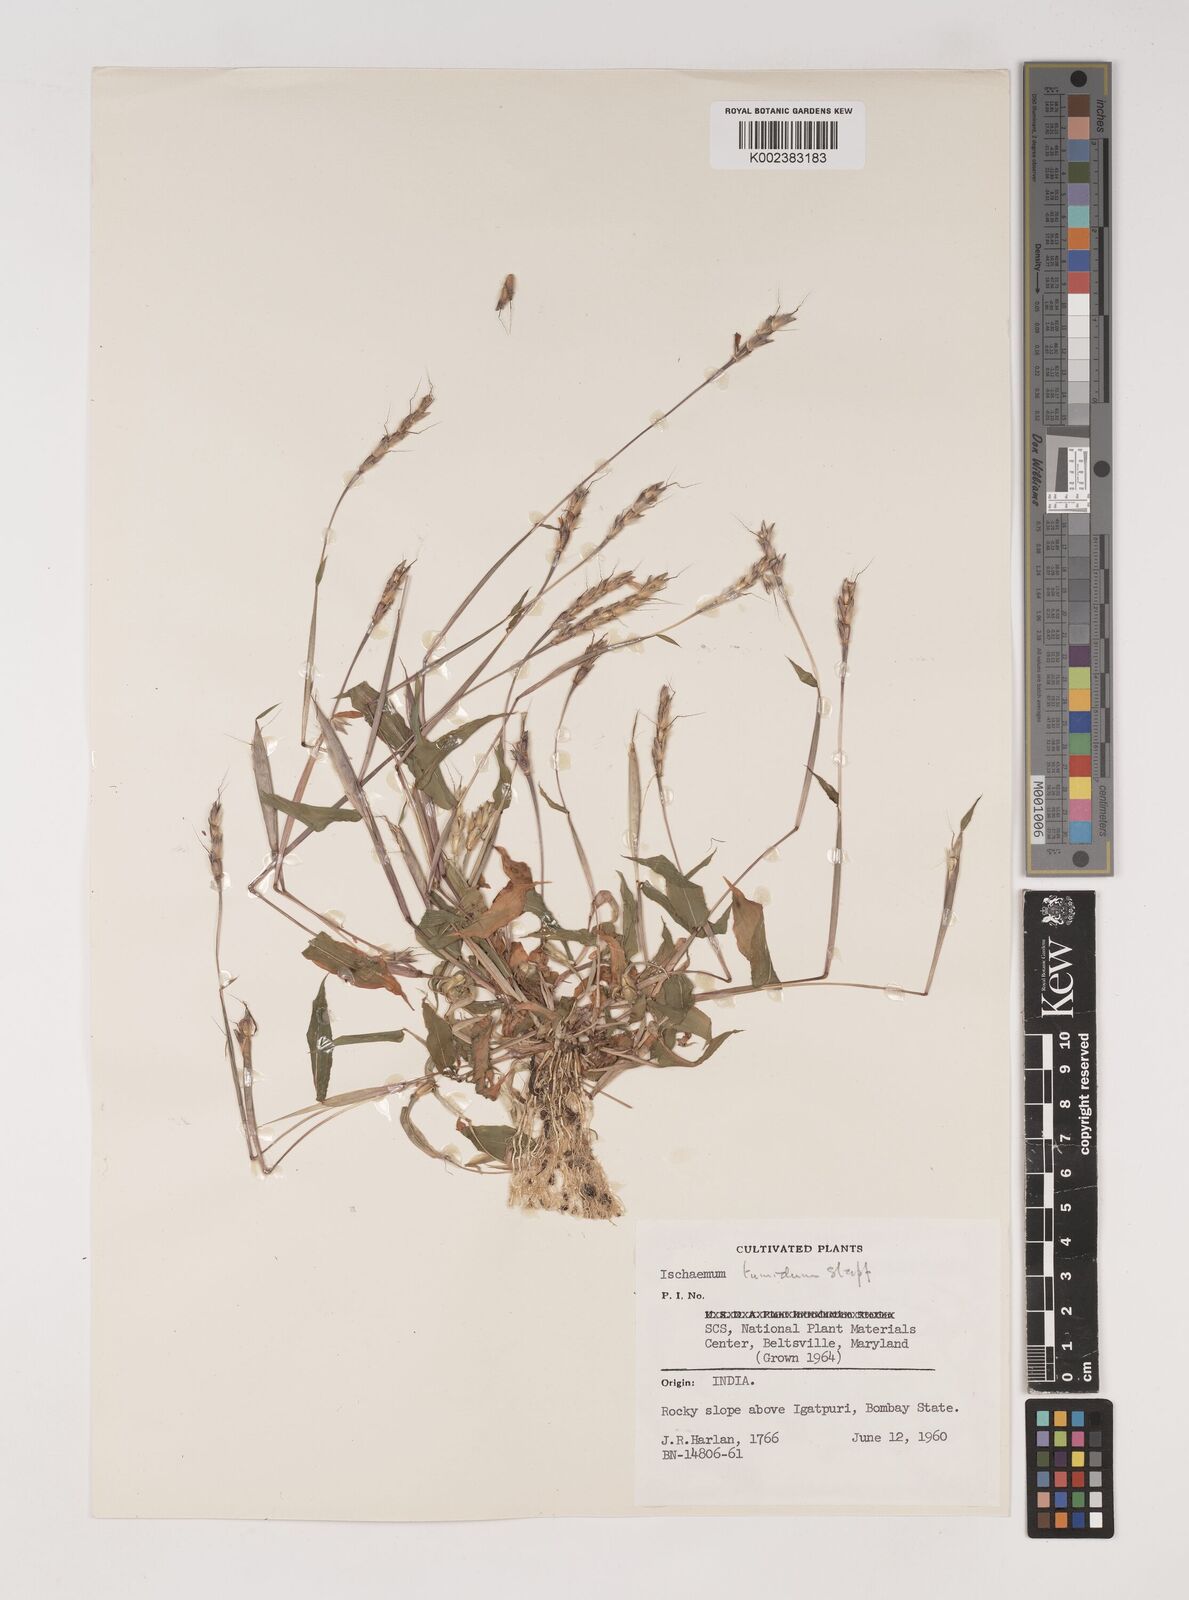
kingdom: Plantae
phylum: Tracheophyta
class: Liliopsida
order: Poales
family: Poaceae
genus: Ischaemum
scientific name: Ischaemum tumidum
